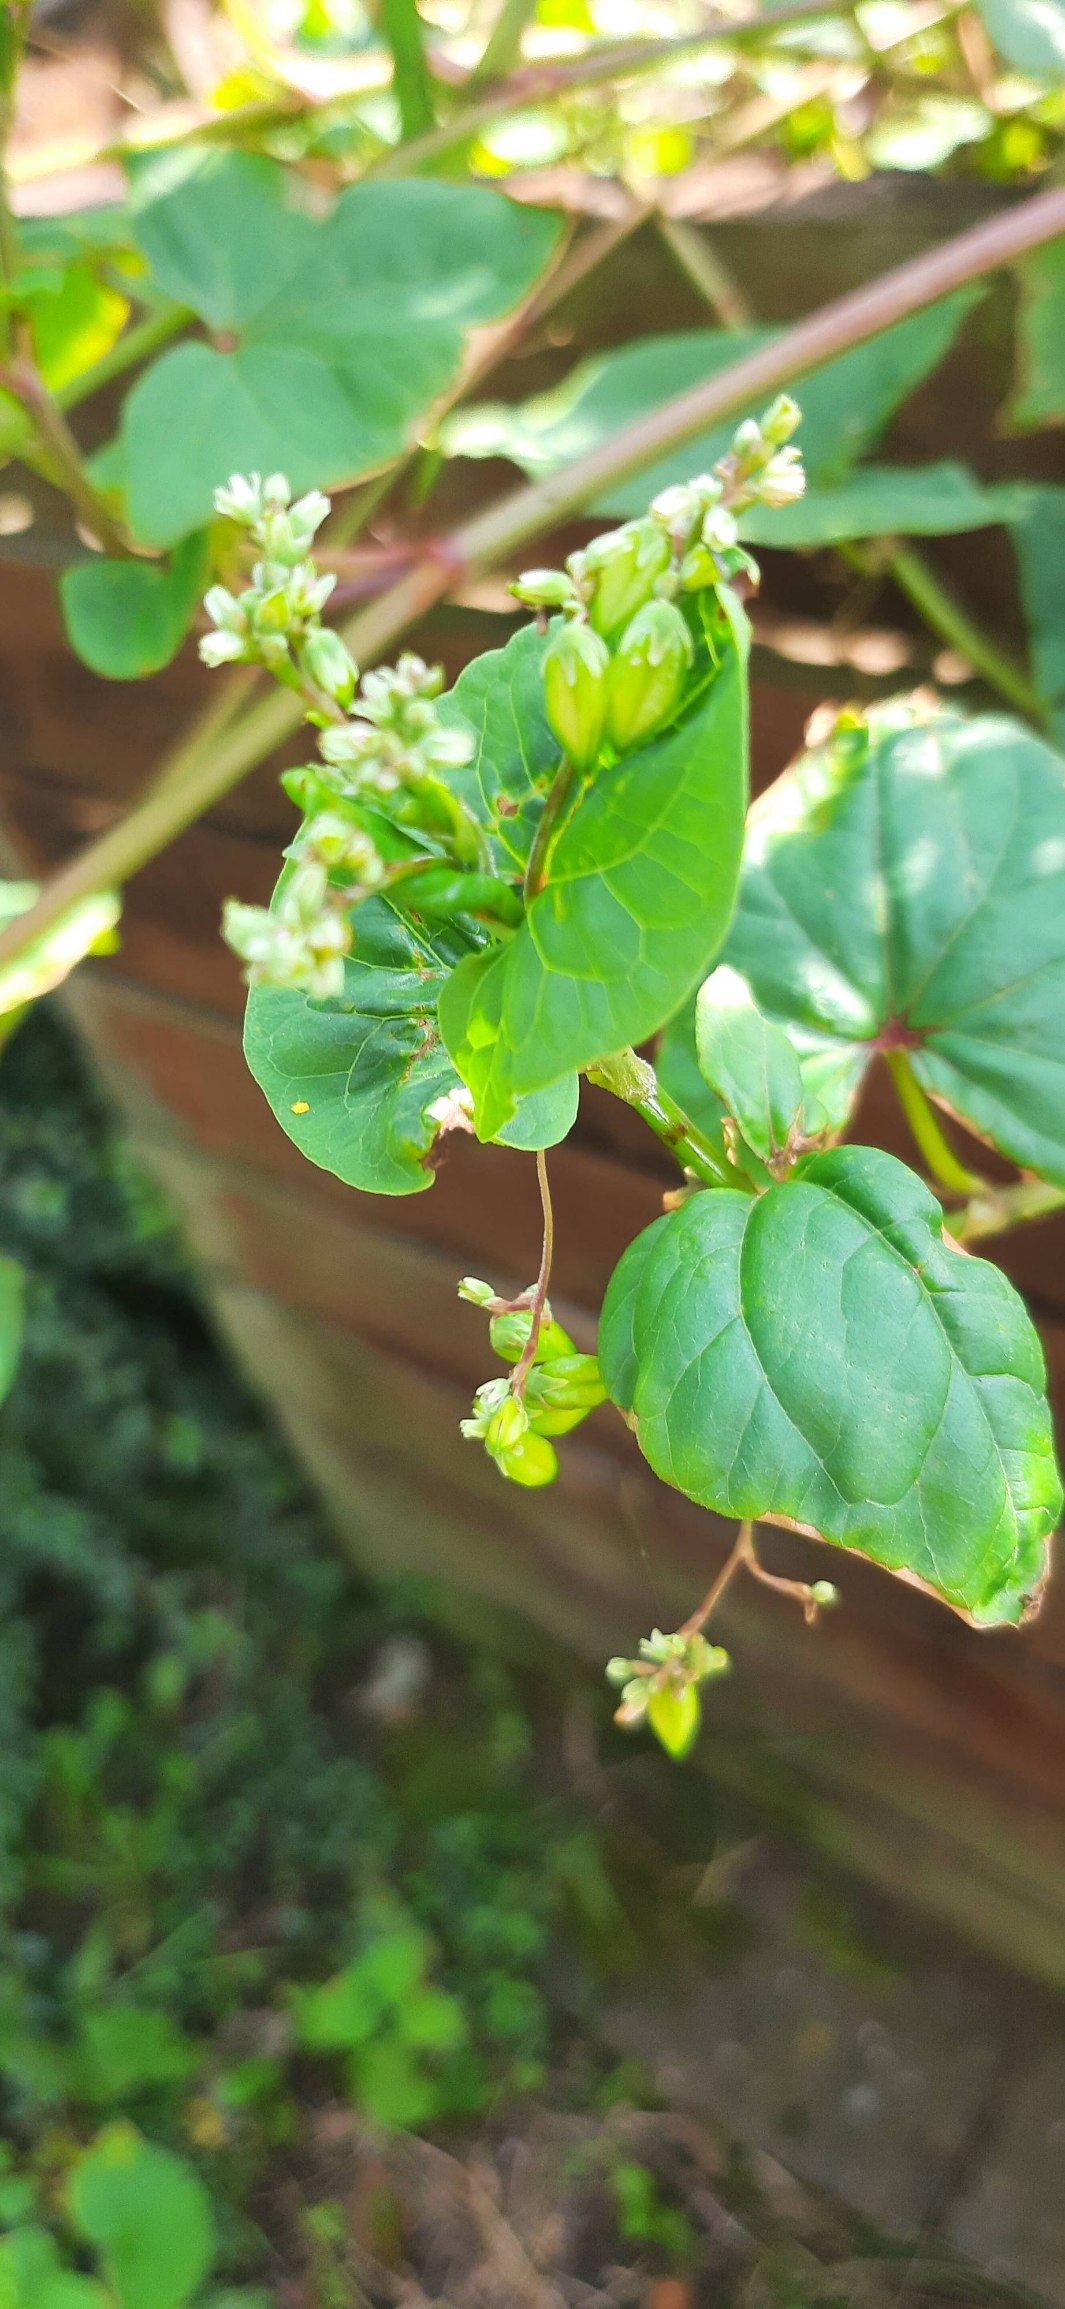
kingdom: Plantae
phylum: Tracheophyta
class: Magnoliopsida
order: Caryophyllales
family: Polygonaceae
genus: Fagopyrum
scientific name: Fagopyrum esculentum
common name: Almindelig boghvede
